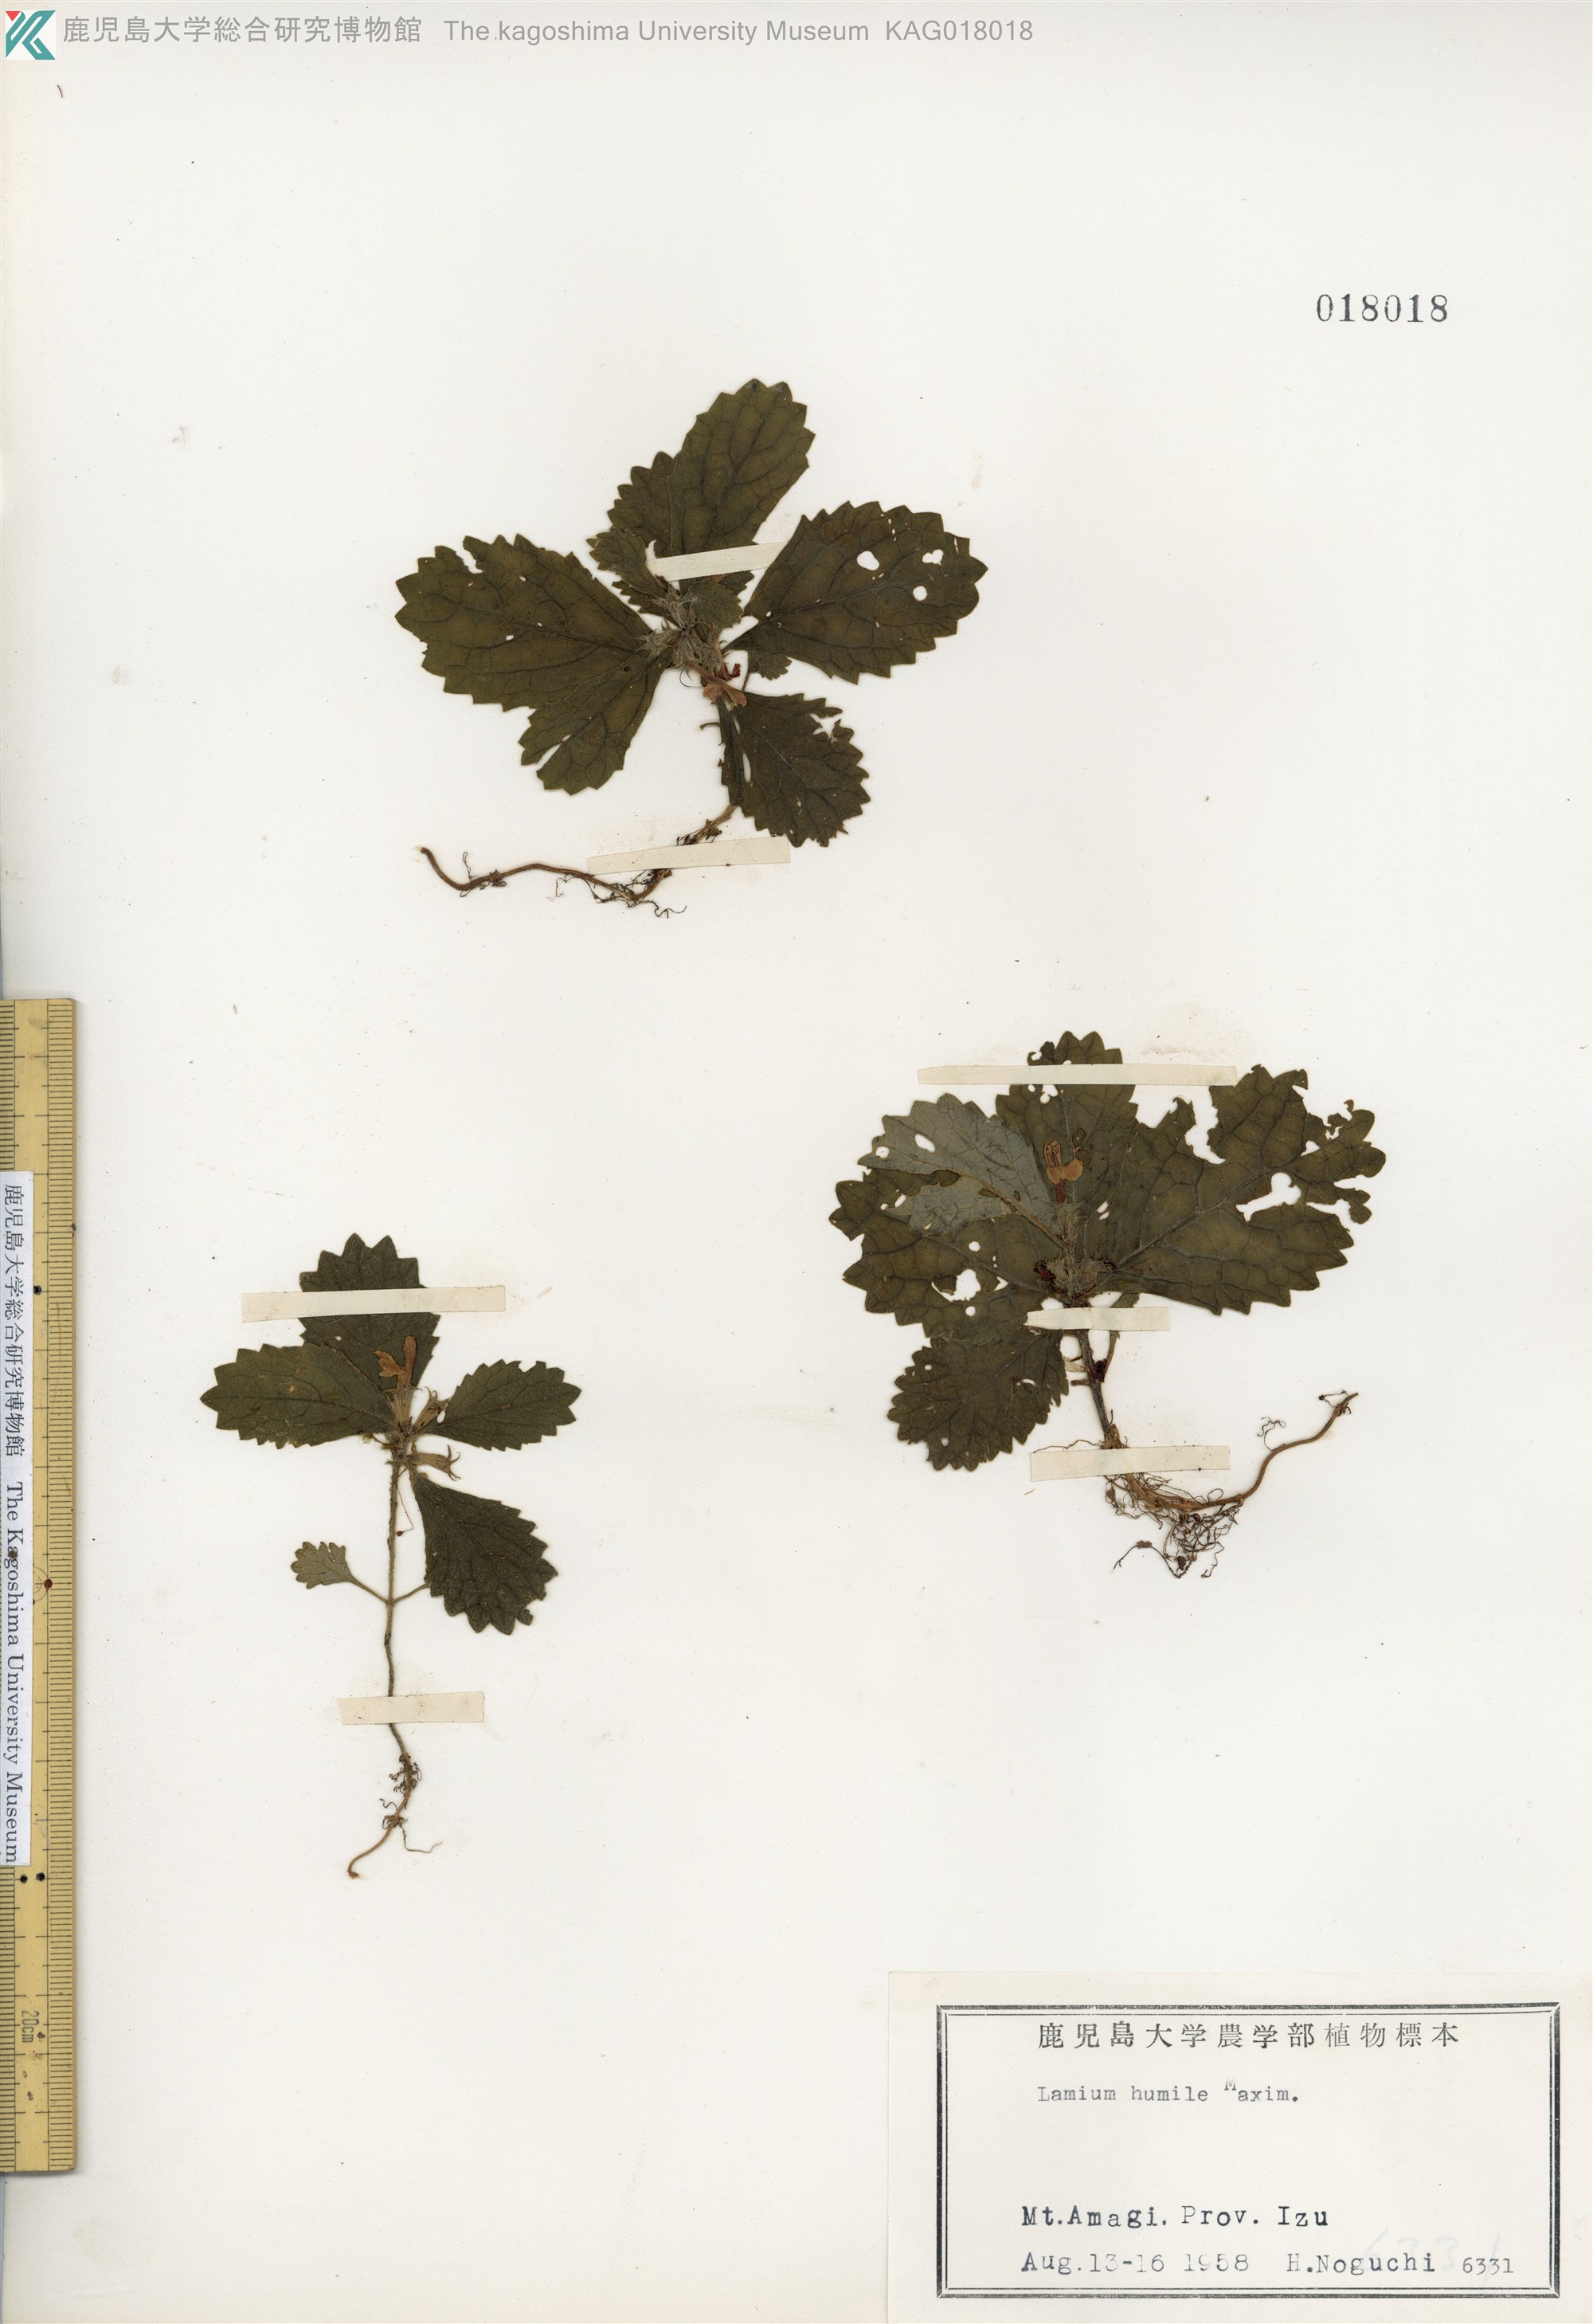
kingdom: Plantae
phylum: Tracheophyta
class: Magnoliopsida
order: Lamiales
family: Lamiaceae
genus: Ajugoides
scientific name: Ajugoides humilis
